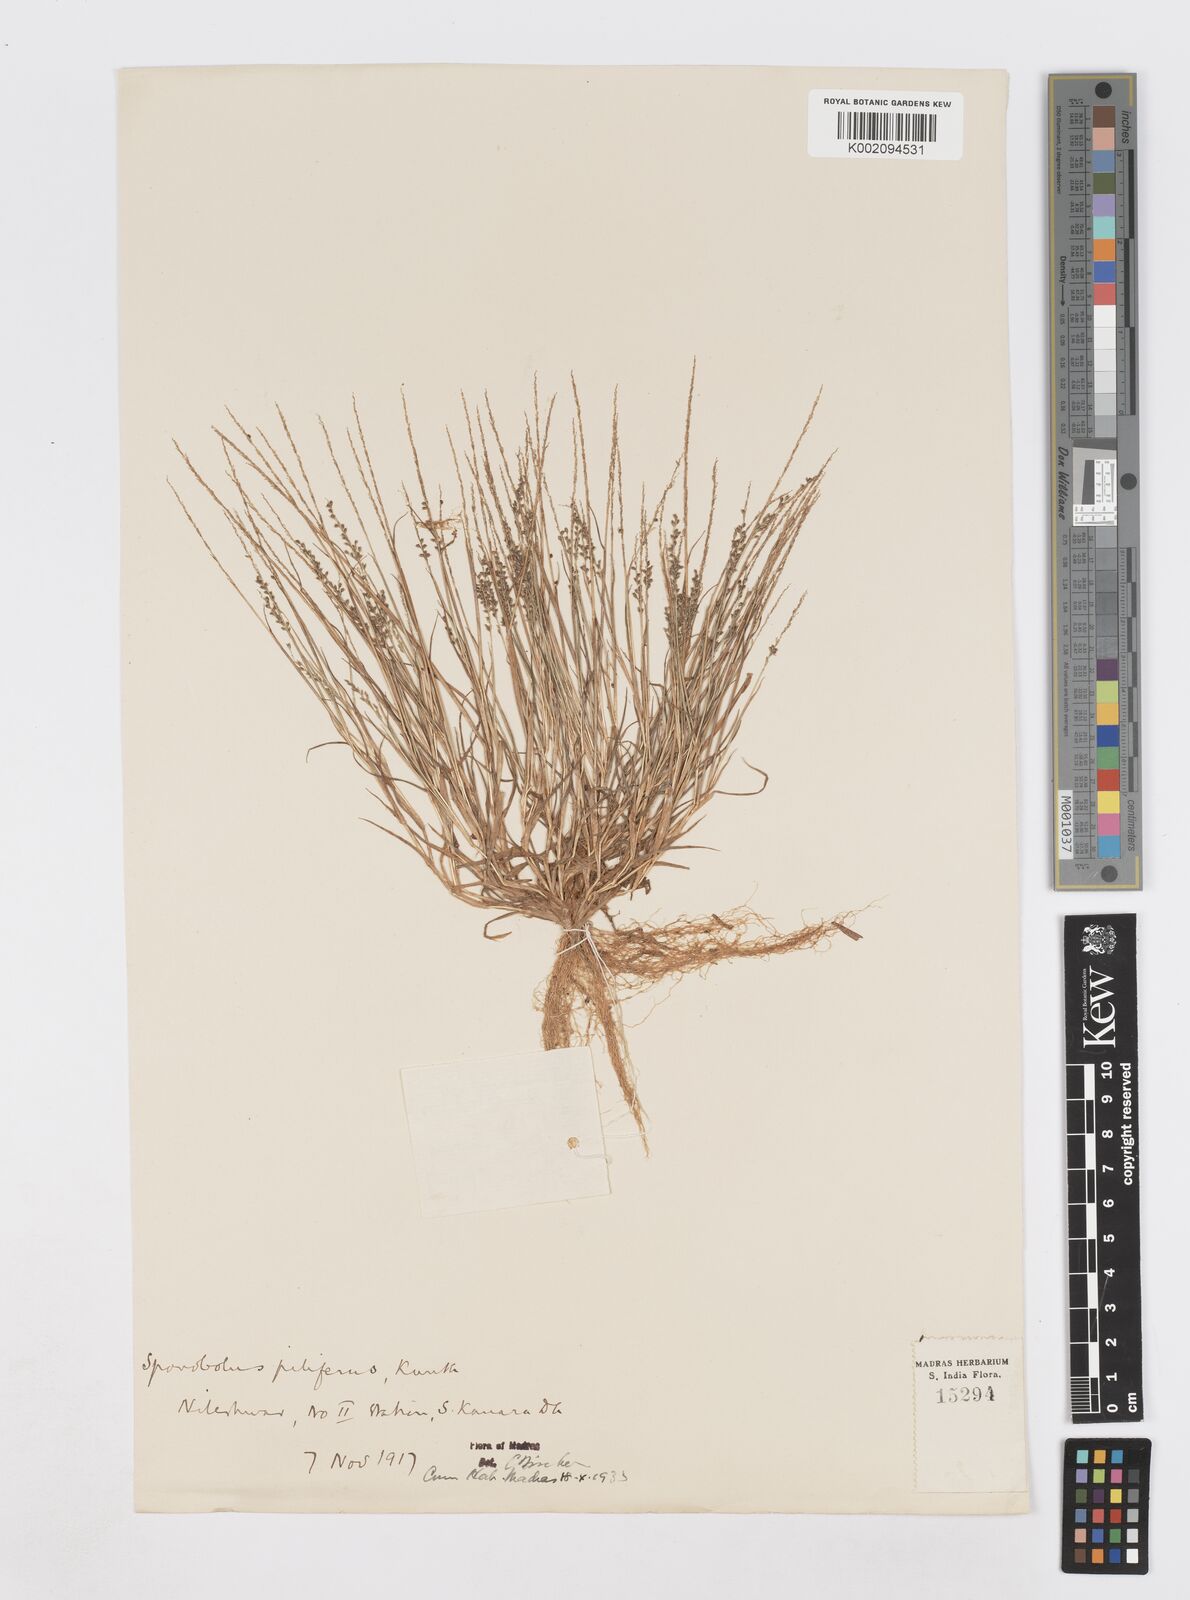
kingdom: Plantae
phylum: Tracheophyta
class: Liliopsida
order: Poales
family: Poaceae
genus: Sporobolus
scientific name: Sporobolus pilifer
